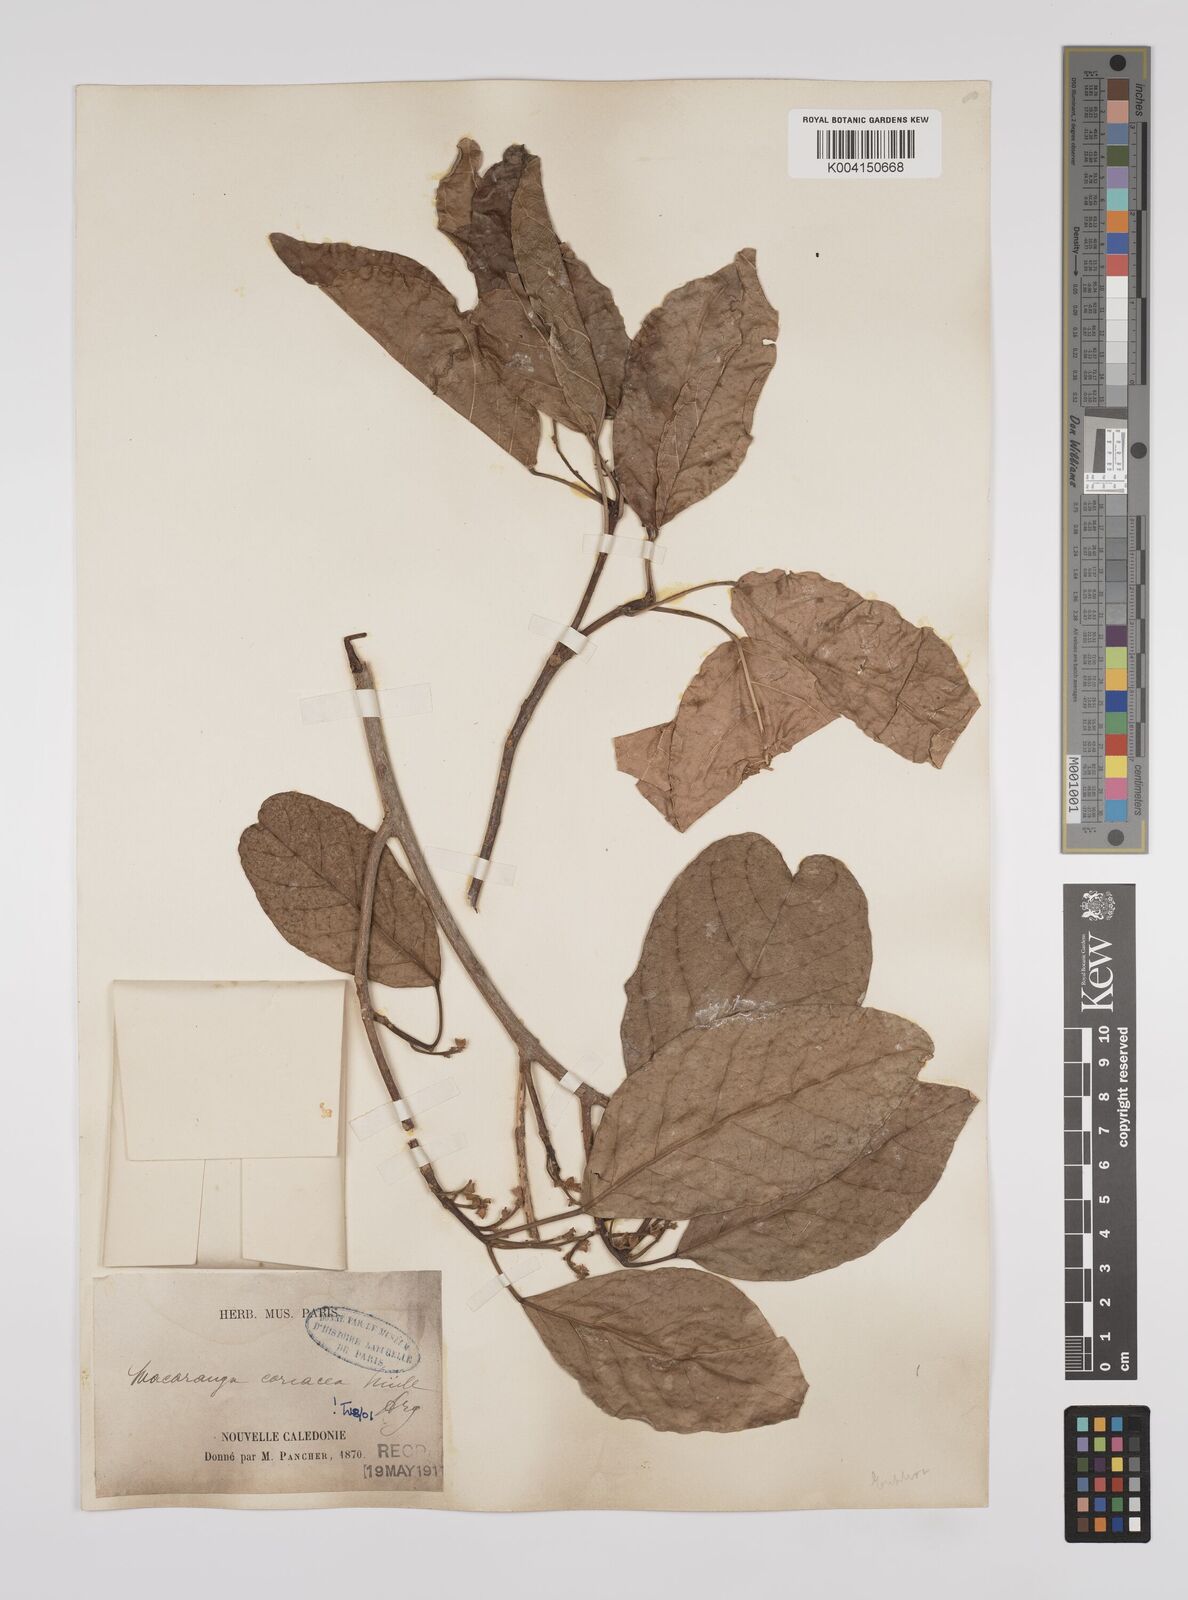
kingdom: Plantae
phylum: Tracheophyta
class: Magnoliopsida
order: Malpighiales
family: Euphorbiaceae
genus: Macaranga
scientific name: Macaranga coriacea
